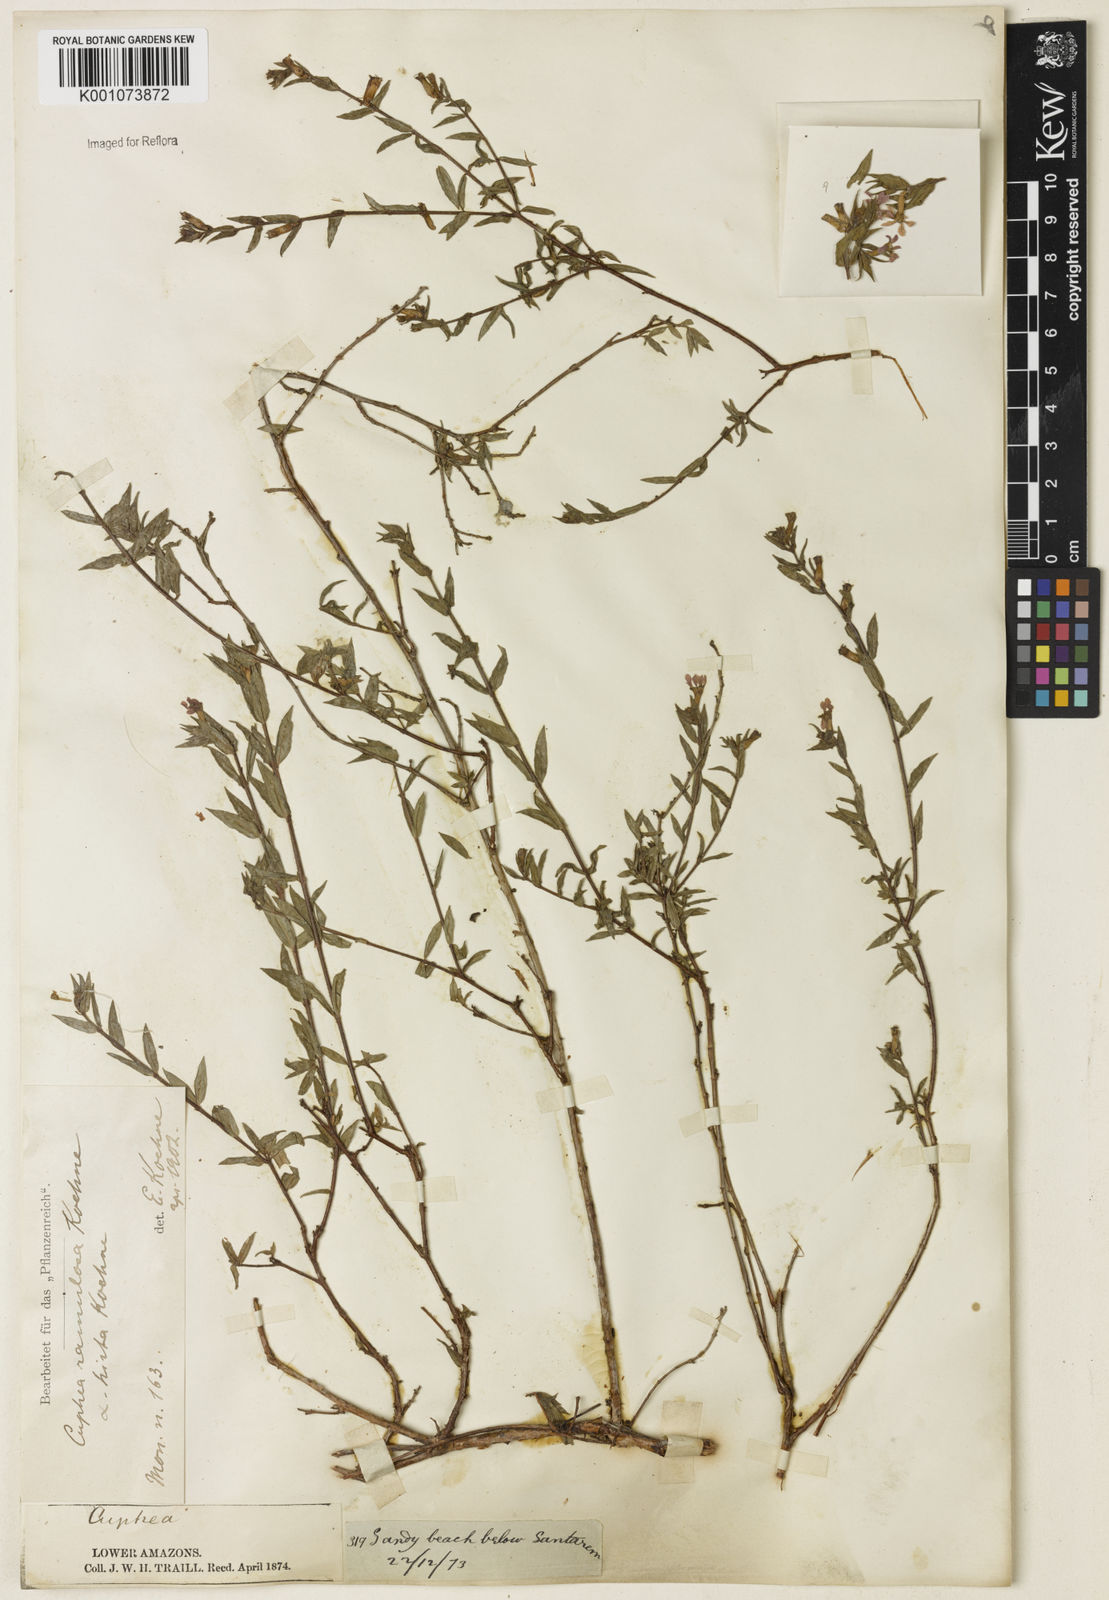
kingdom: Plantae
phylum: Tracheophyta
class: Magnoliopsida
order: Myrtales
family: Lythraceae
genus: Cuphea
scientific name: Cuphea antisyphilitica
